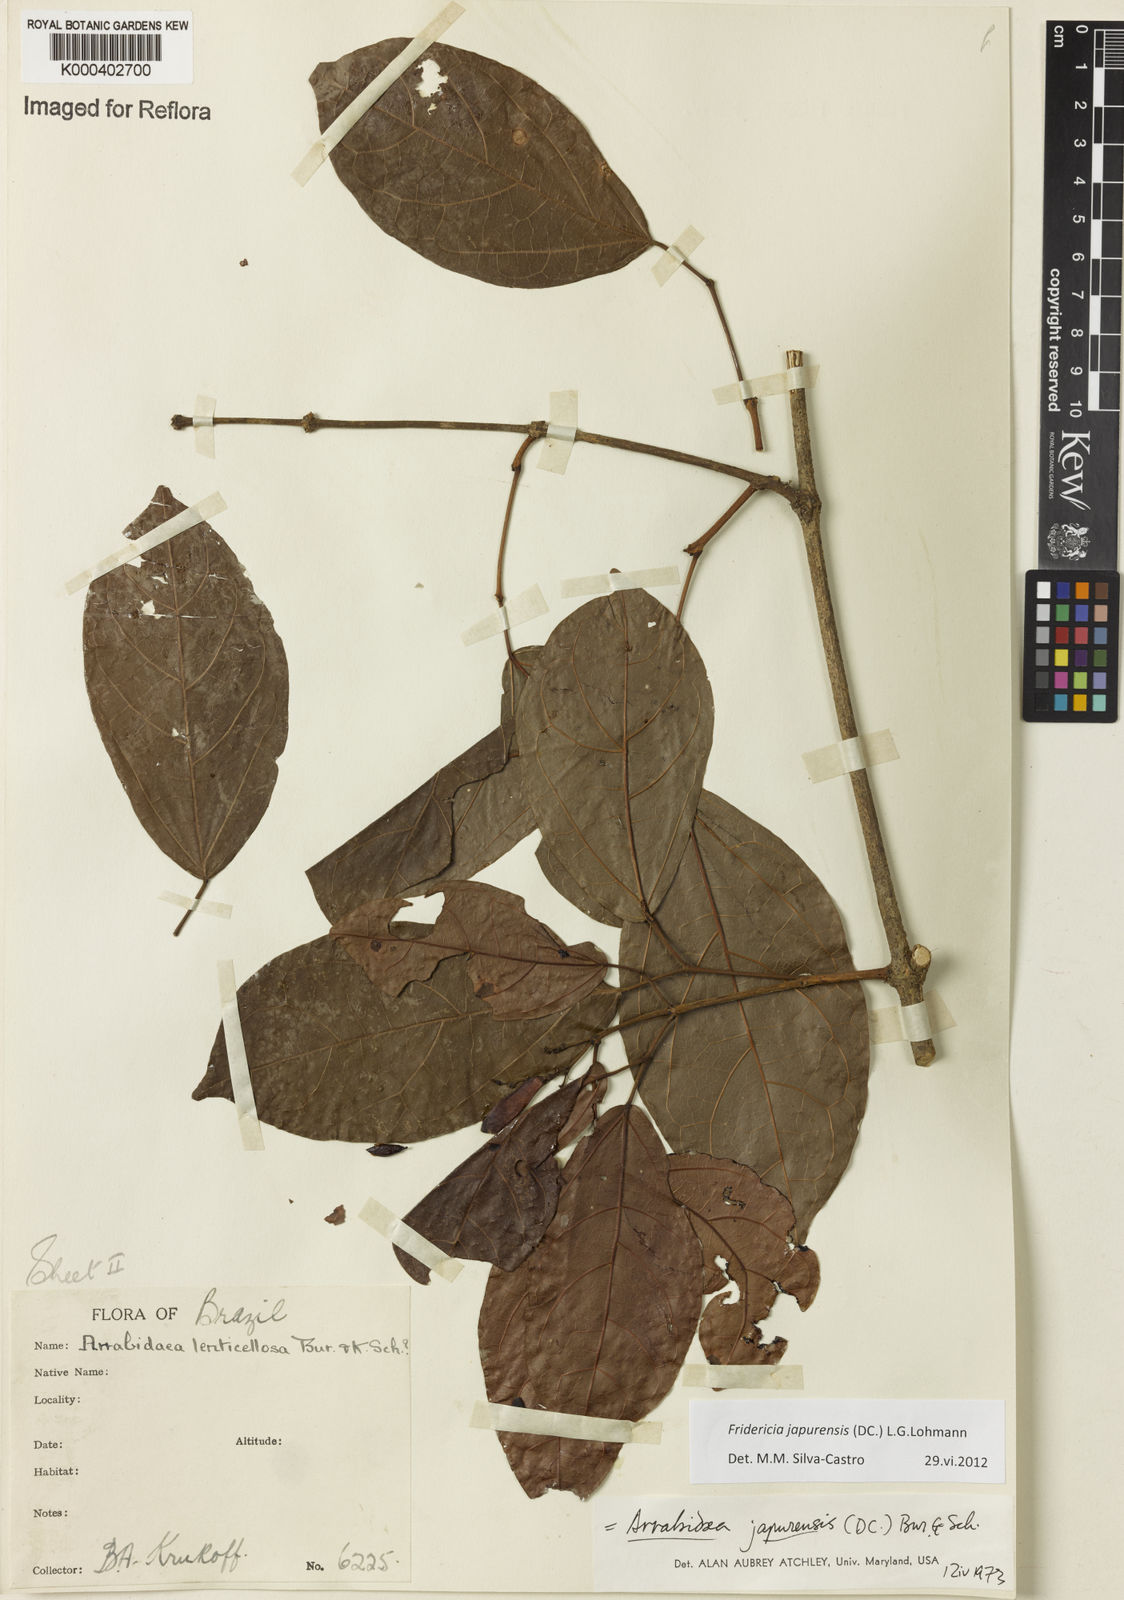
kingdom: Plantae
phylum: Tracheophyta
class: Magnoliopsida
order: Lamiales
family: Bignoniaceae
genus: Fridericia
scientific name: Fridericia japurensis
